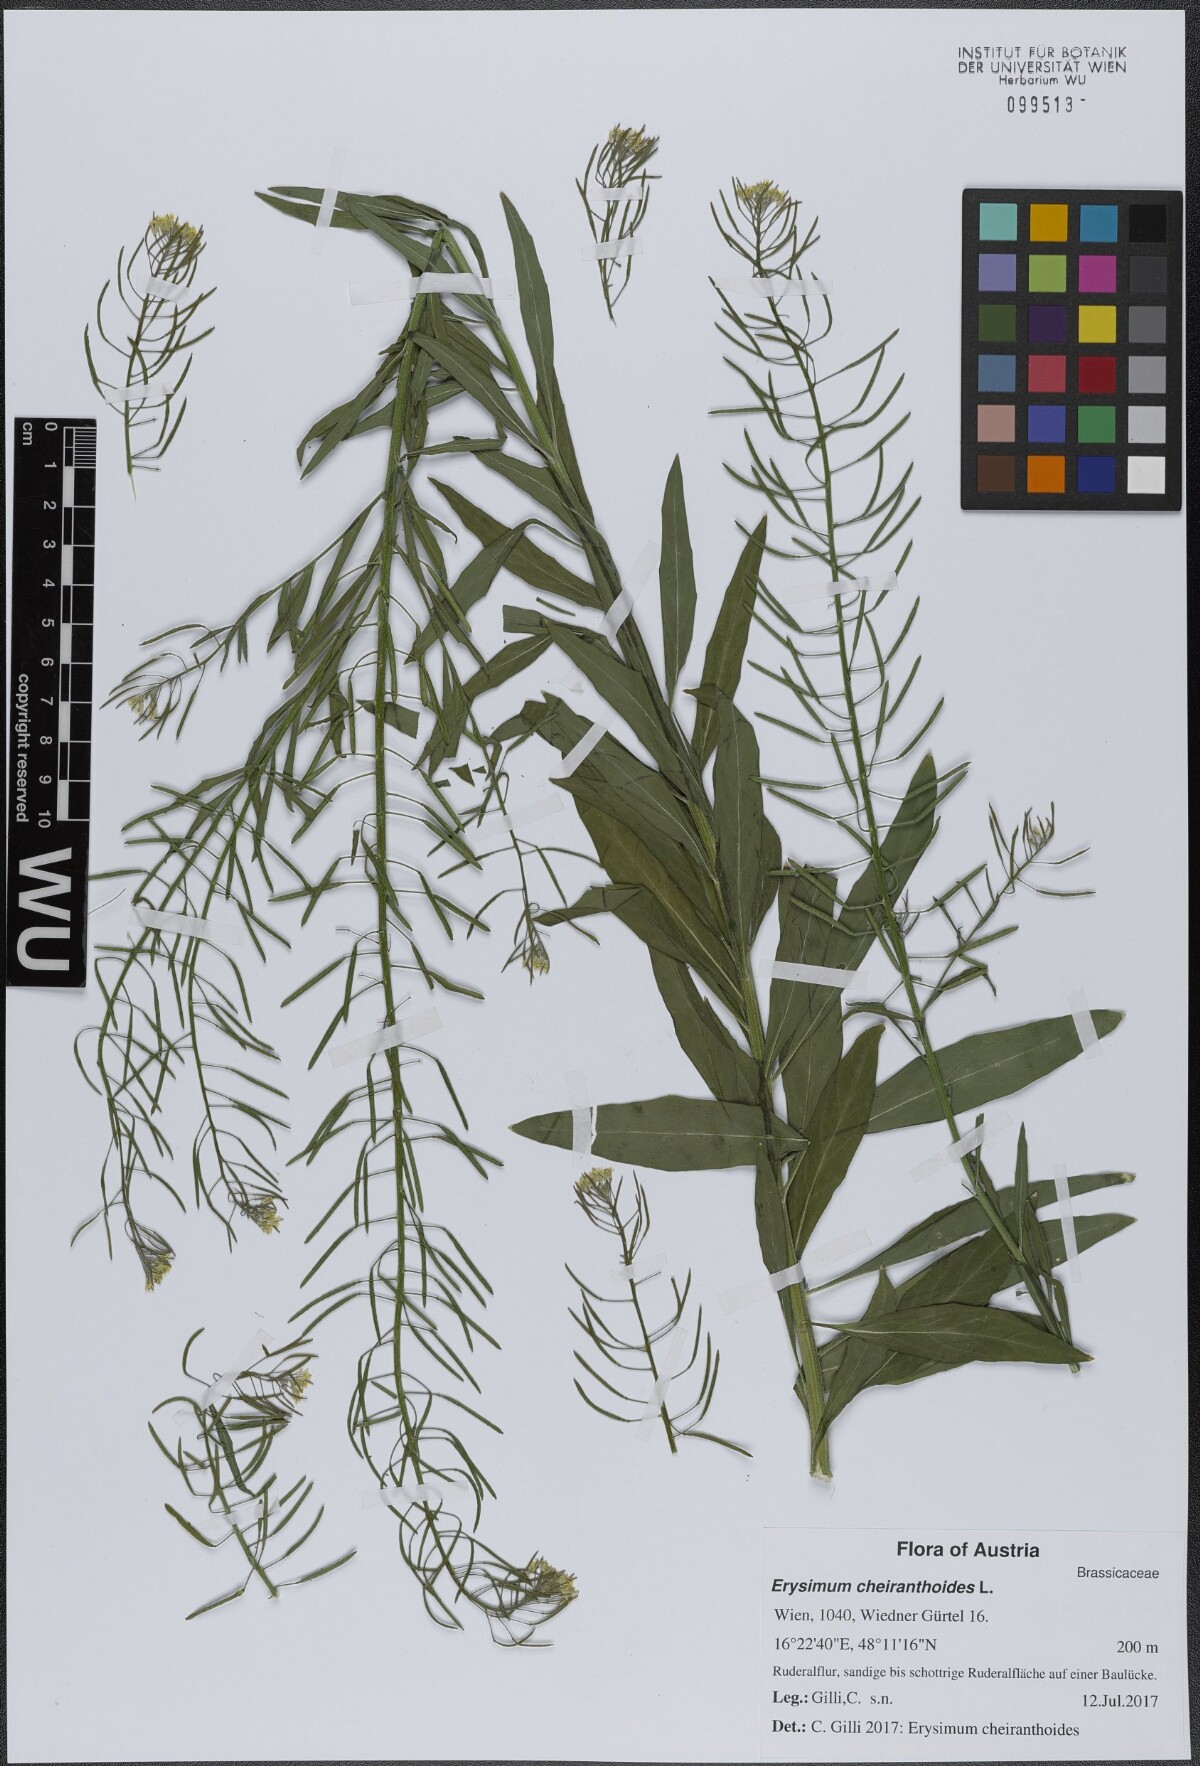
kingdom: Plantae
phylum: Tracheophyta
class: Magnoliopsida
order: Brassicales
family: Brassicaceae
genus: Erysimum
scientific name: Erysimum cheiranthoides
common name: Treacle mustard
